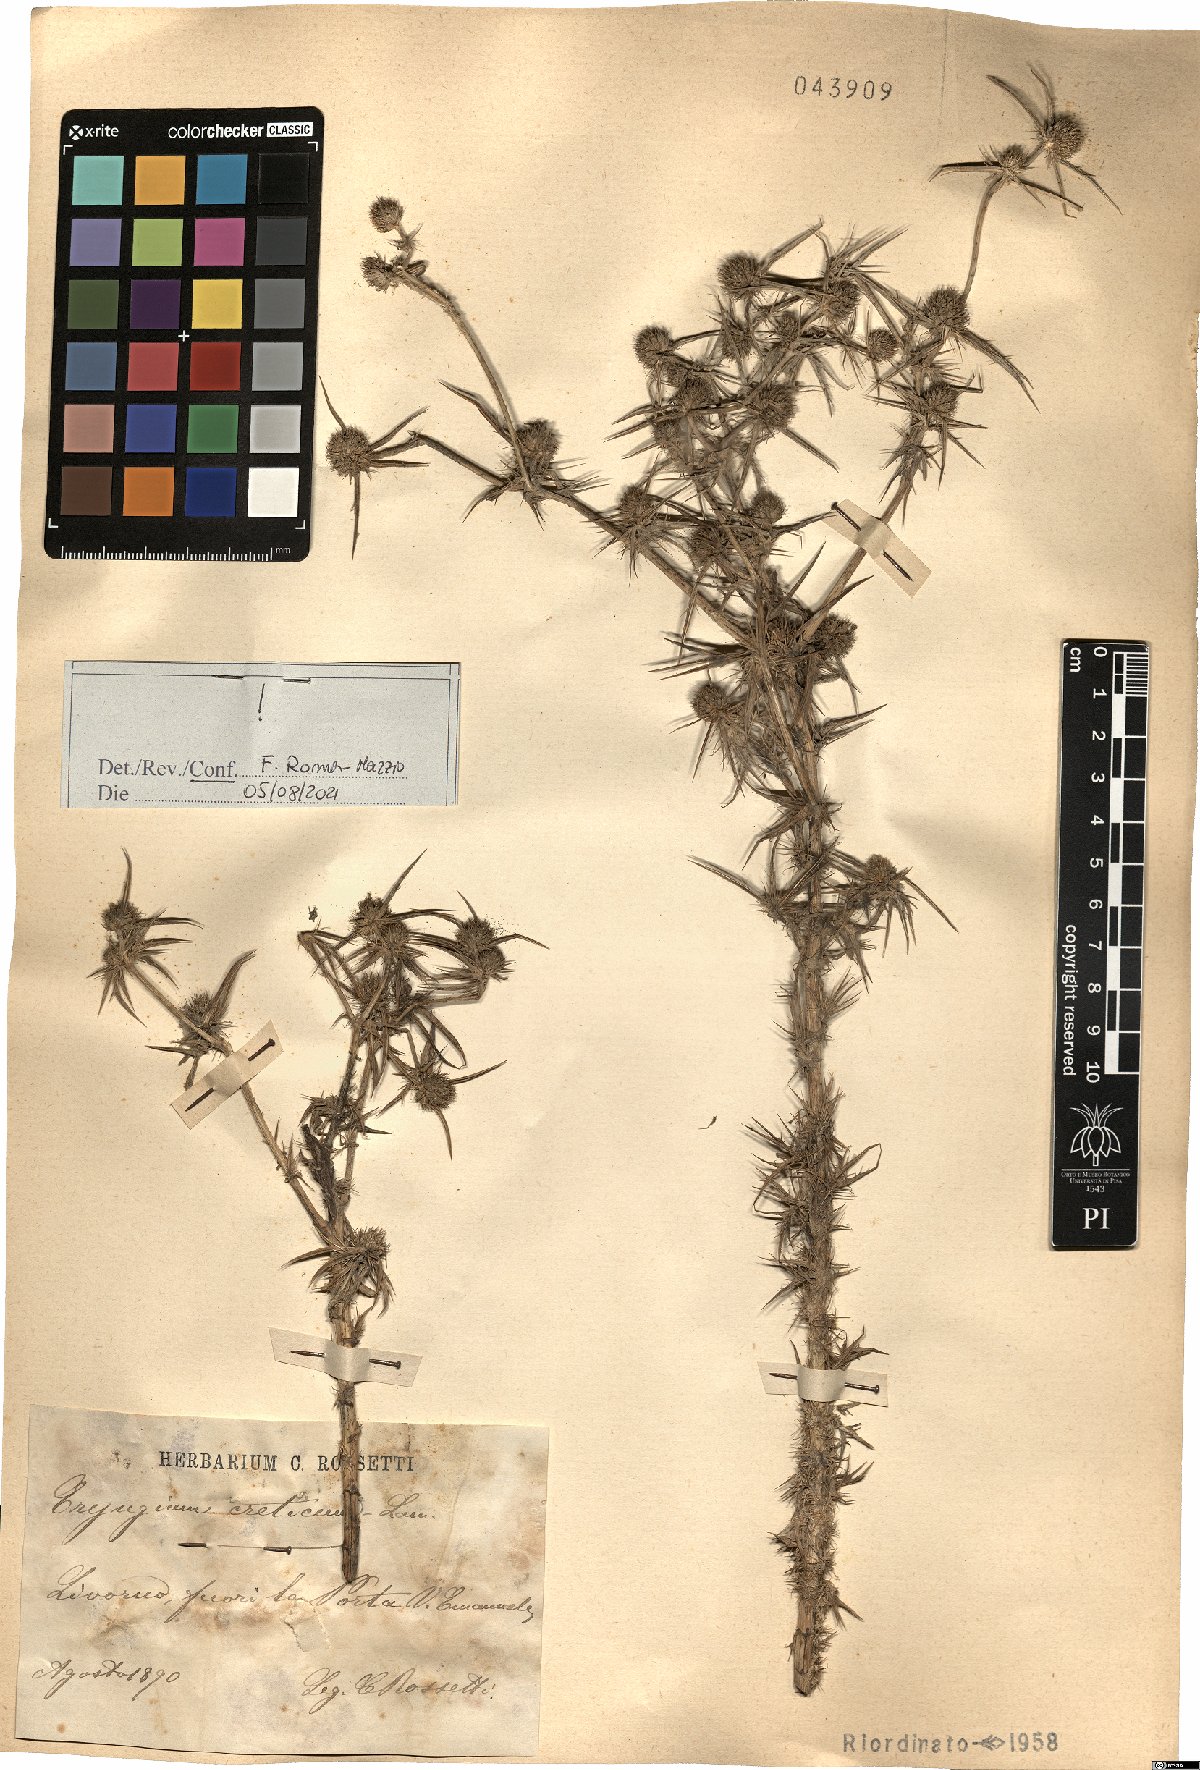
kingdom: Plantae
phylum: Tracheophyta
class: Magnoliopsida
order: Apiales
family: Apiaceae
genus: Eryngium
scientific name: Eryngium creticum
